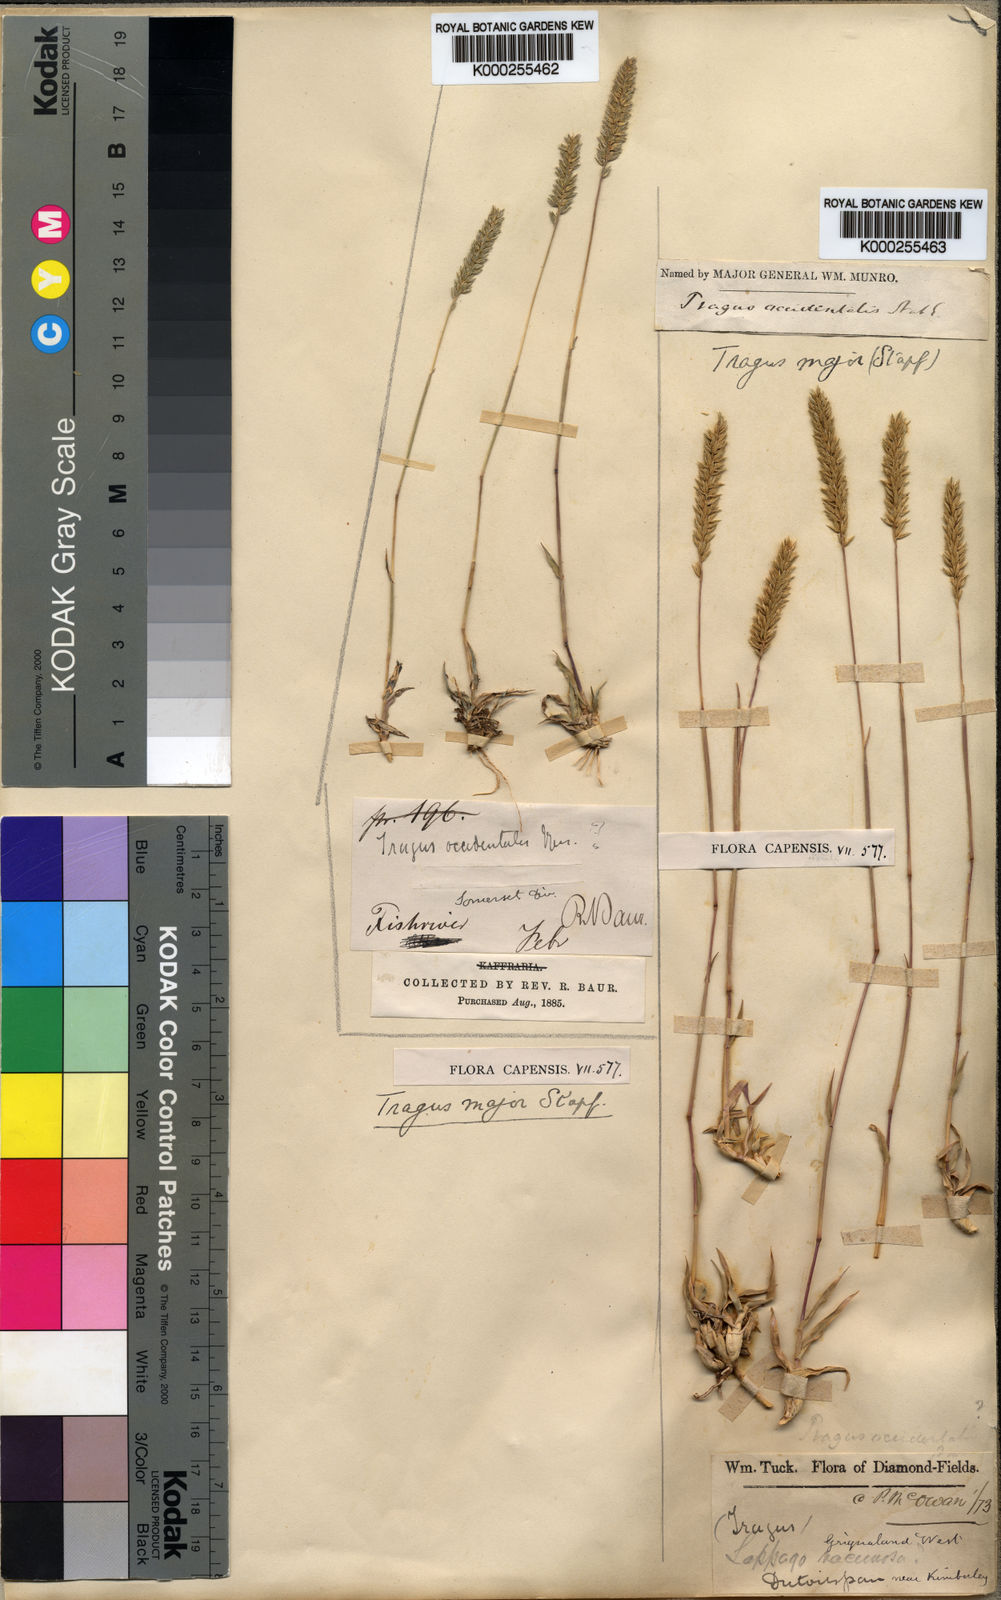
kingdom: Plantae
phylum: Tracheophyta
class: Liliopsida
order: Poales
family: Poaceae
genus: Tragus
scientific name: Tragus koelerioides
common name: Creeping carrot-seed grass
